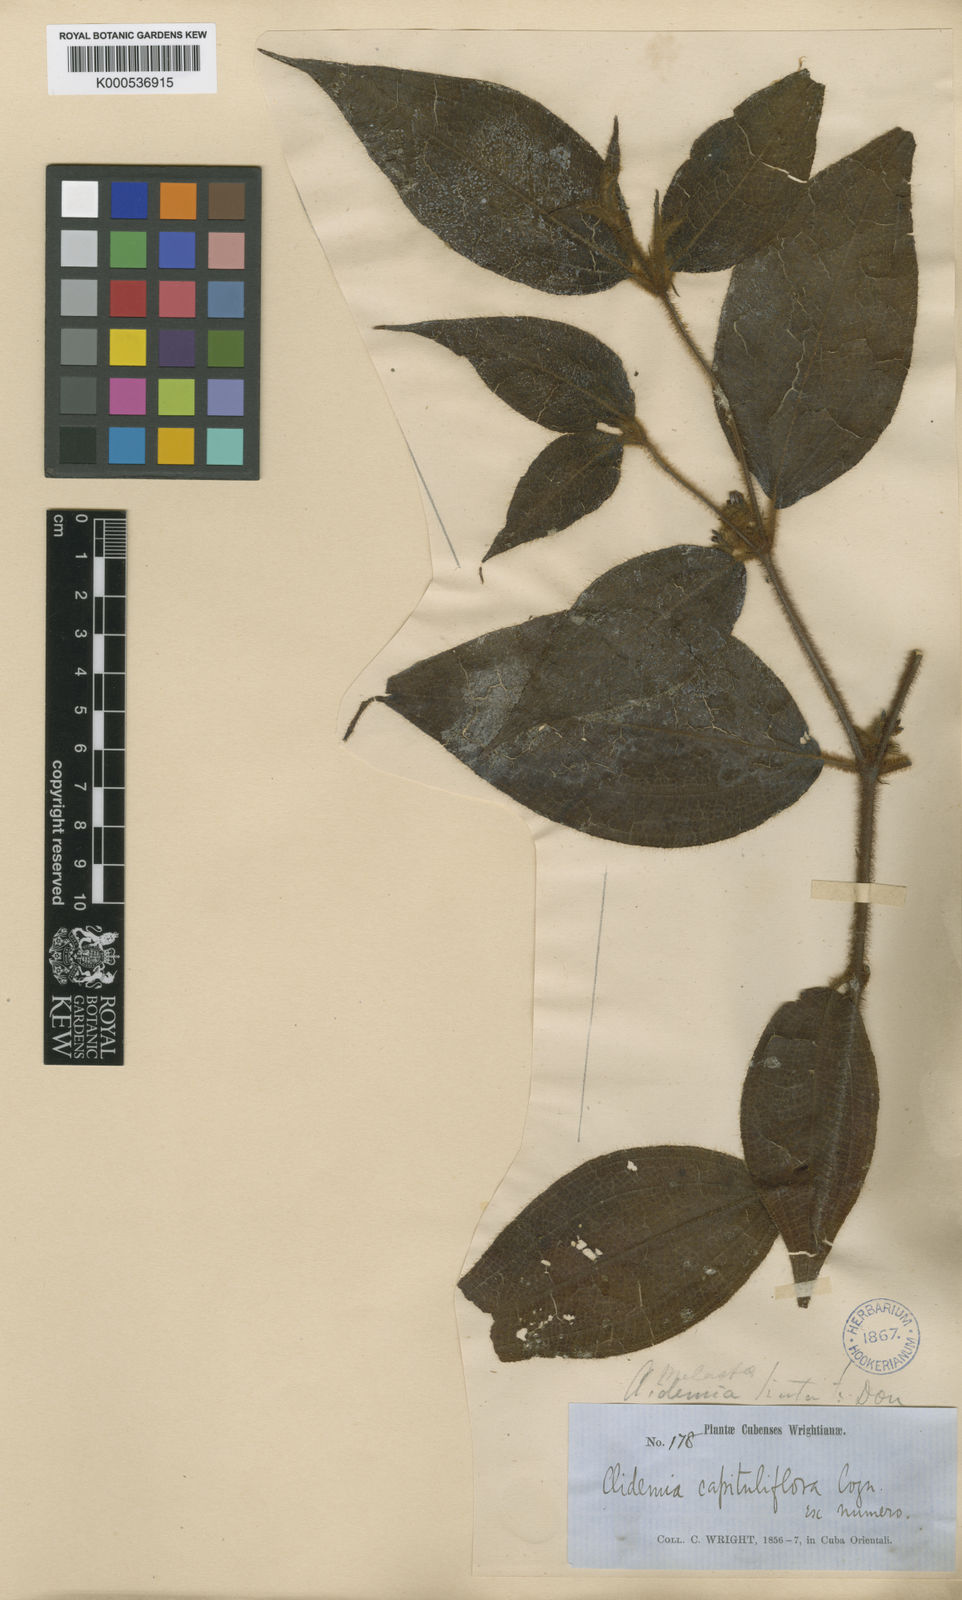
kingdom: Plantae
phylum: Tracheophyta
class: Magnoliopsida
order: Myrtales
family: Melastomataceae
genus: Miconia
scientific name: Miconia rubrinervis
